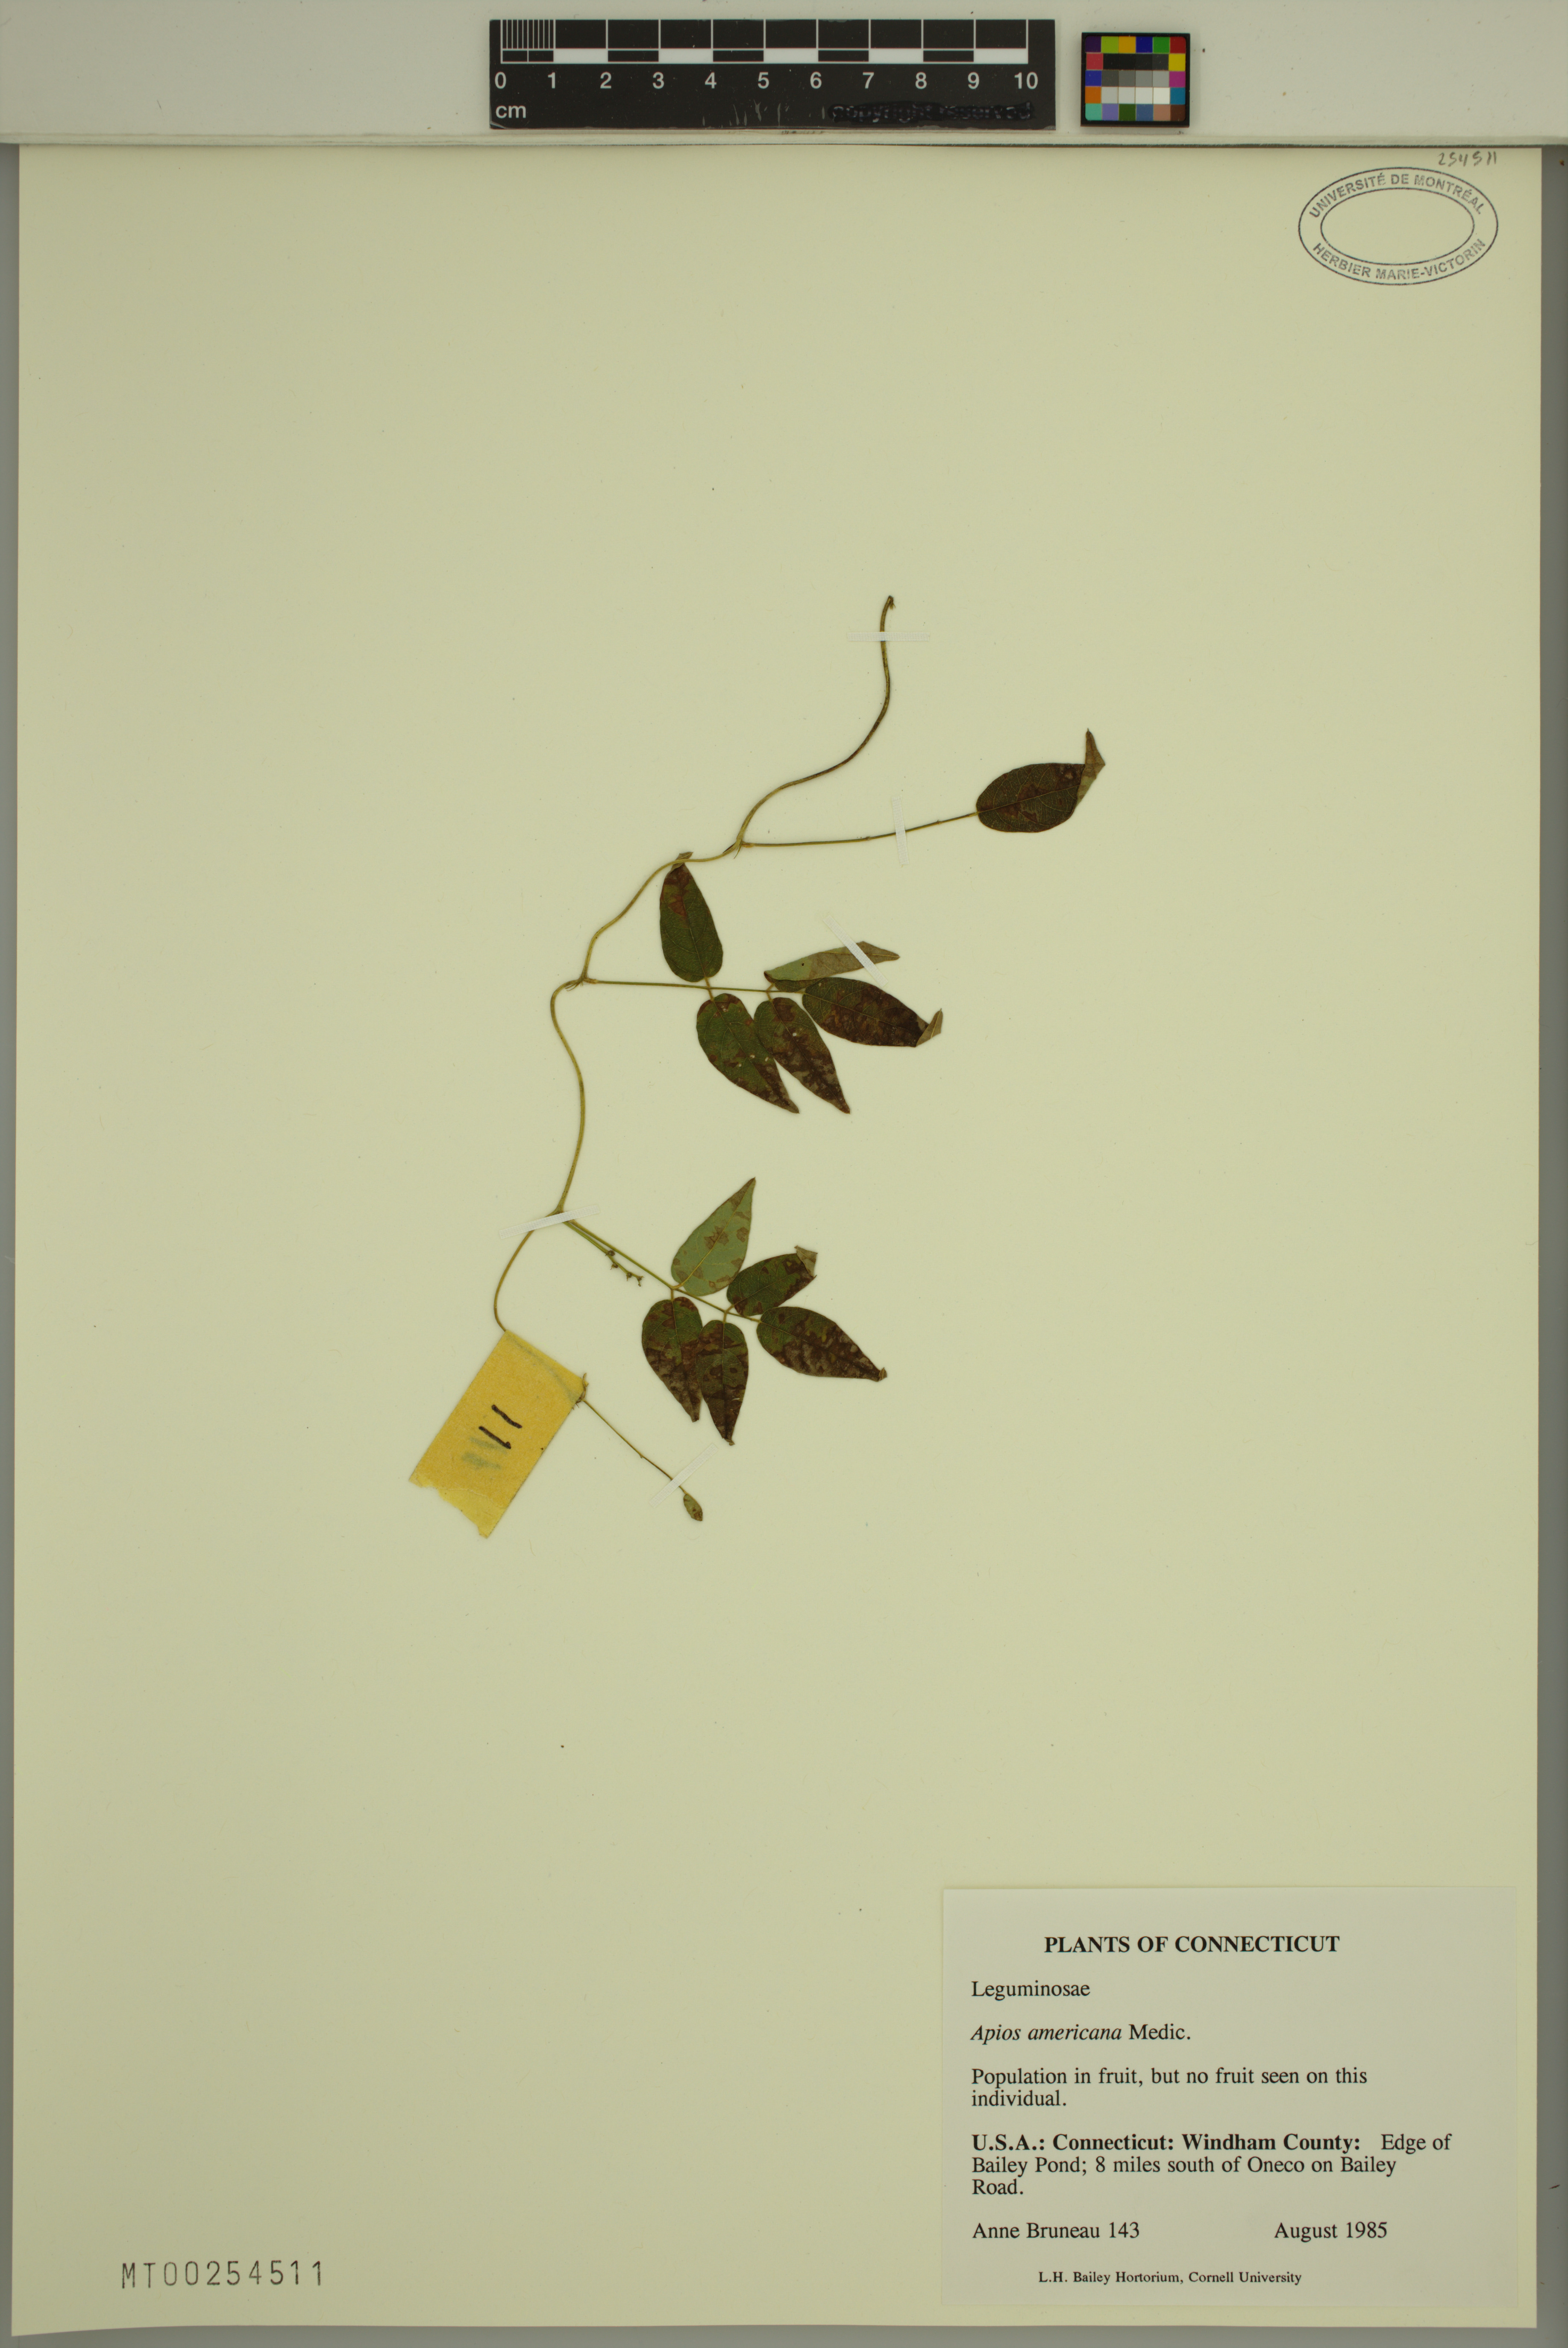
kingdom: Plantae
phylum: Tracheophyta
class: Magnoliopsida
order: Fabales
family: Fabaceae
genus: Apios
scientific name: Apios americana
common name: American potato-bean
